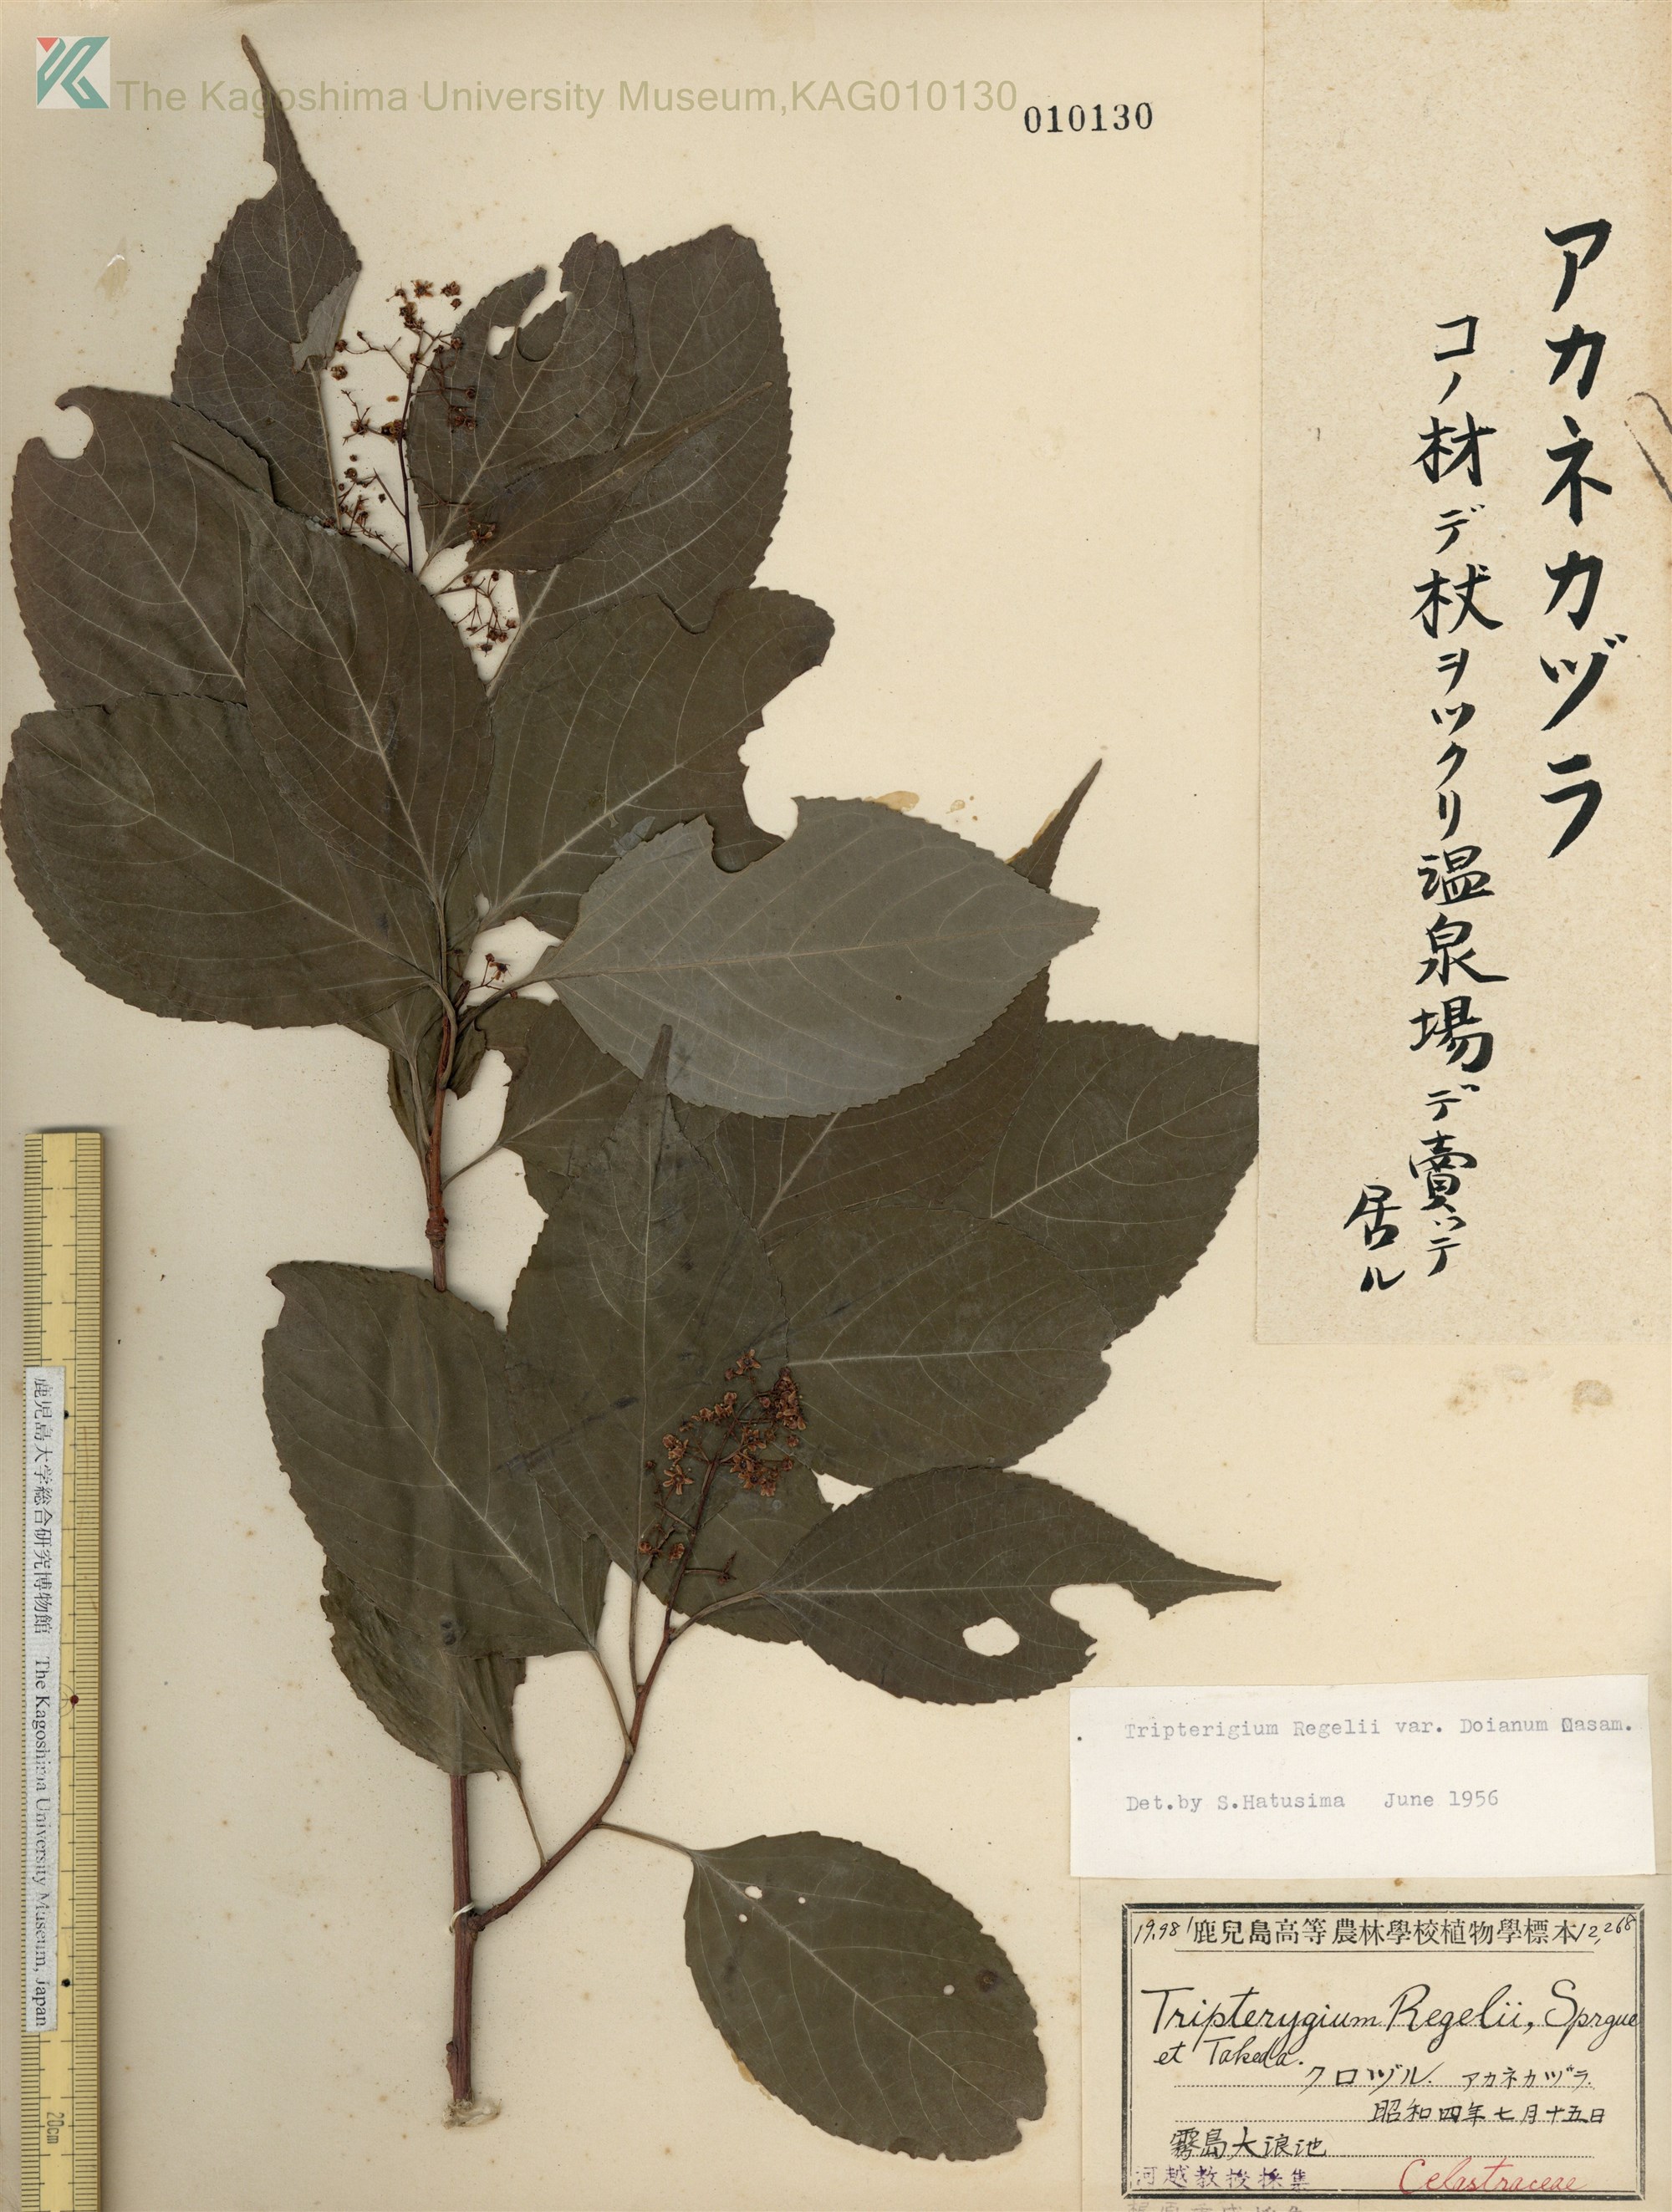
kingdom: Plantae
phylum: Tracheophyta
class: Magnoliopsida
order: Celastrales
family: Celastraceae
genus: Tripterygium
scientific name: Tripterygium doianum
